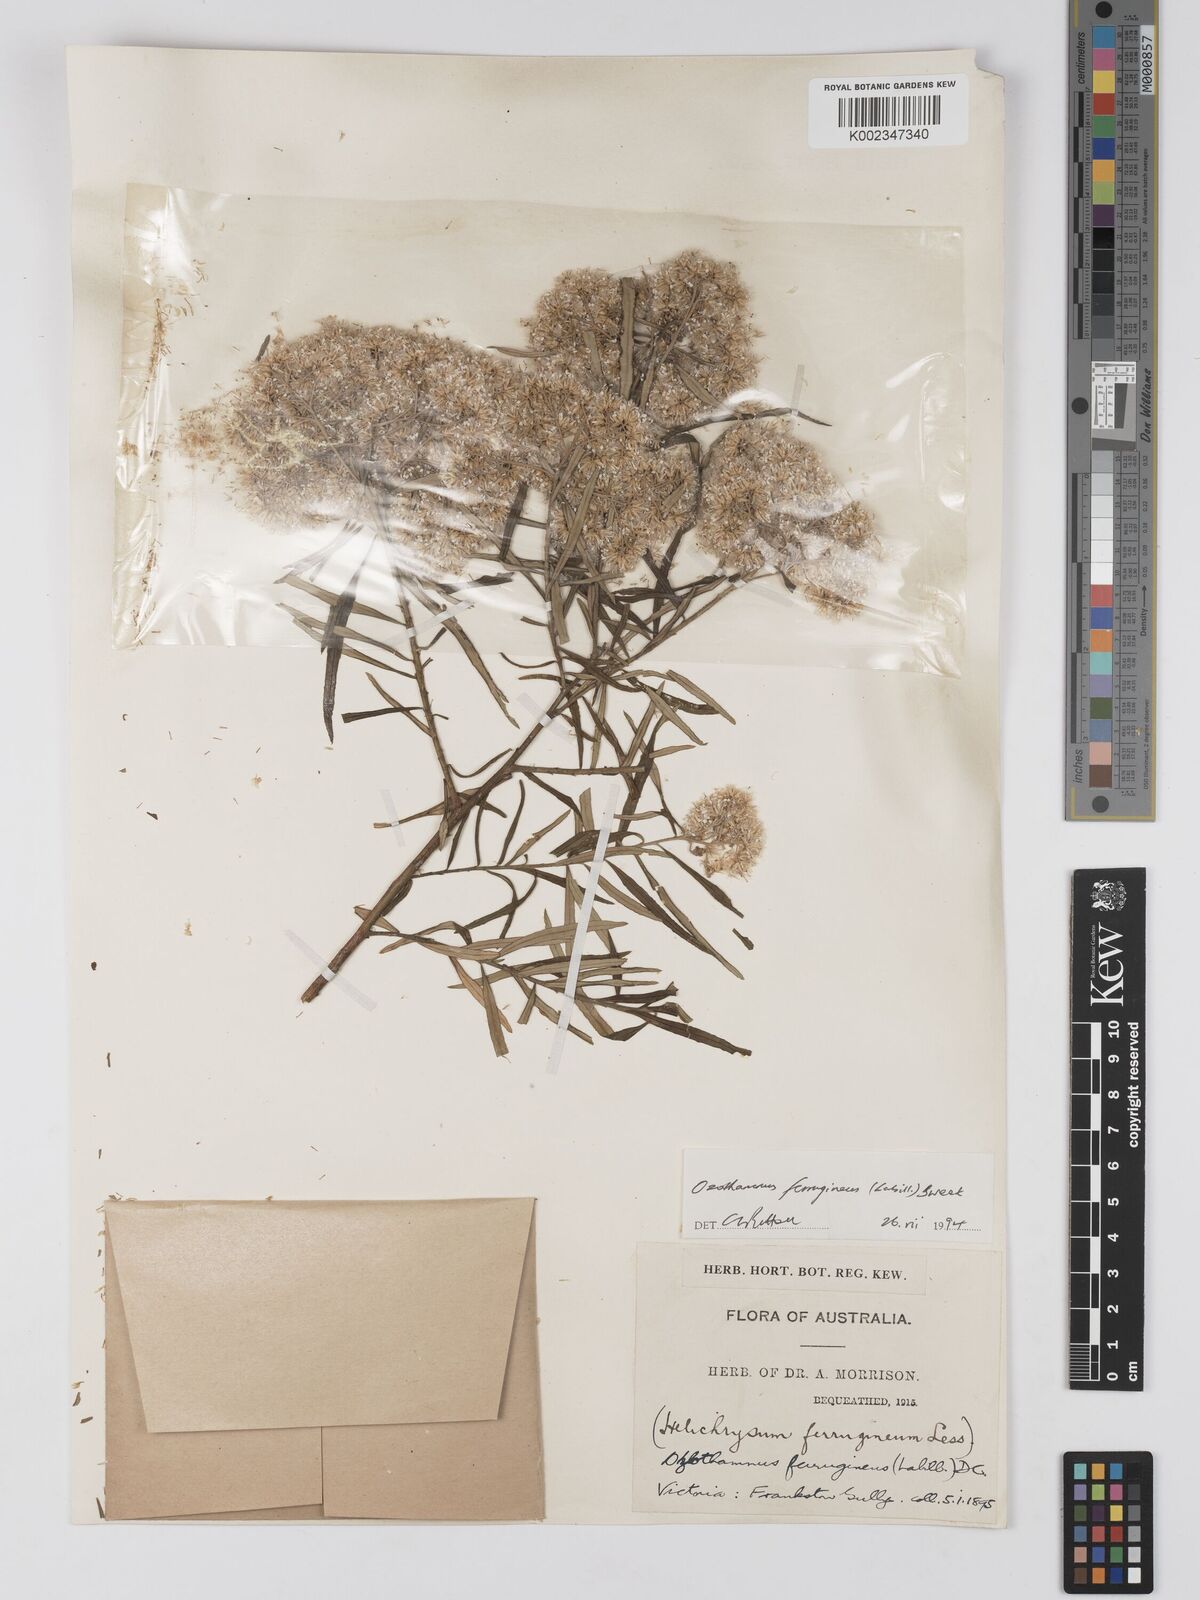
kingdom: Plantae
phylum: Tracheophyta
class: Magnoliopsida
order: Asterales
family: Asteraceae
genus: Ozothamnus
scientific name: Ozothamnus
